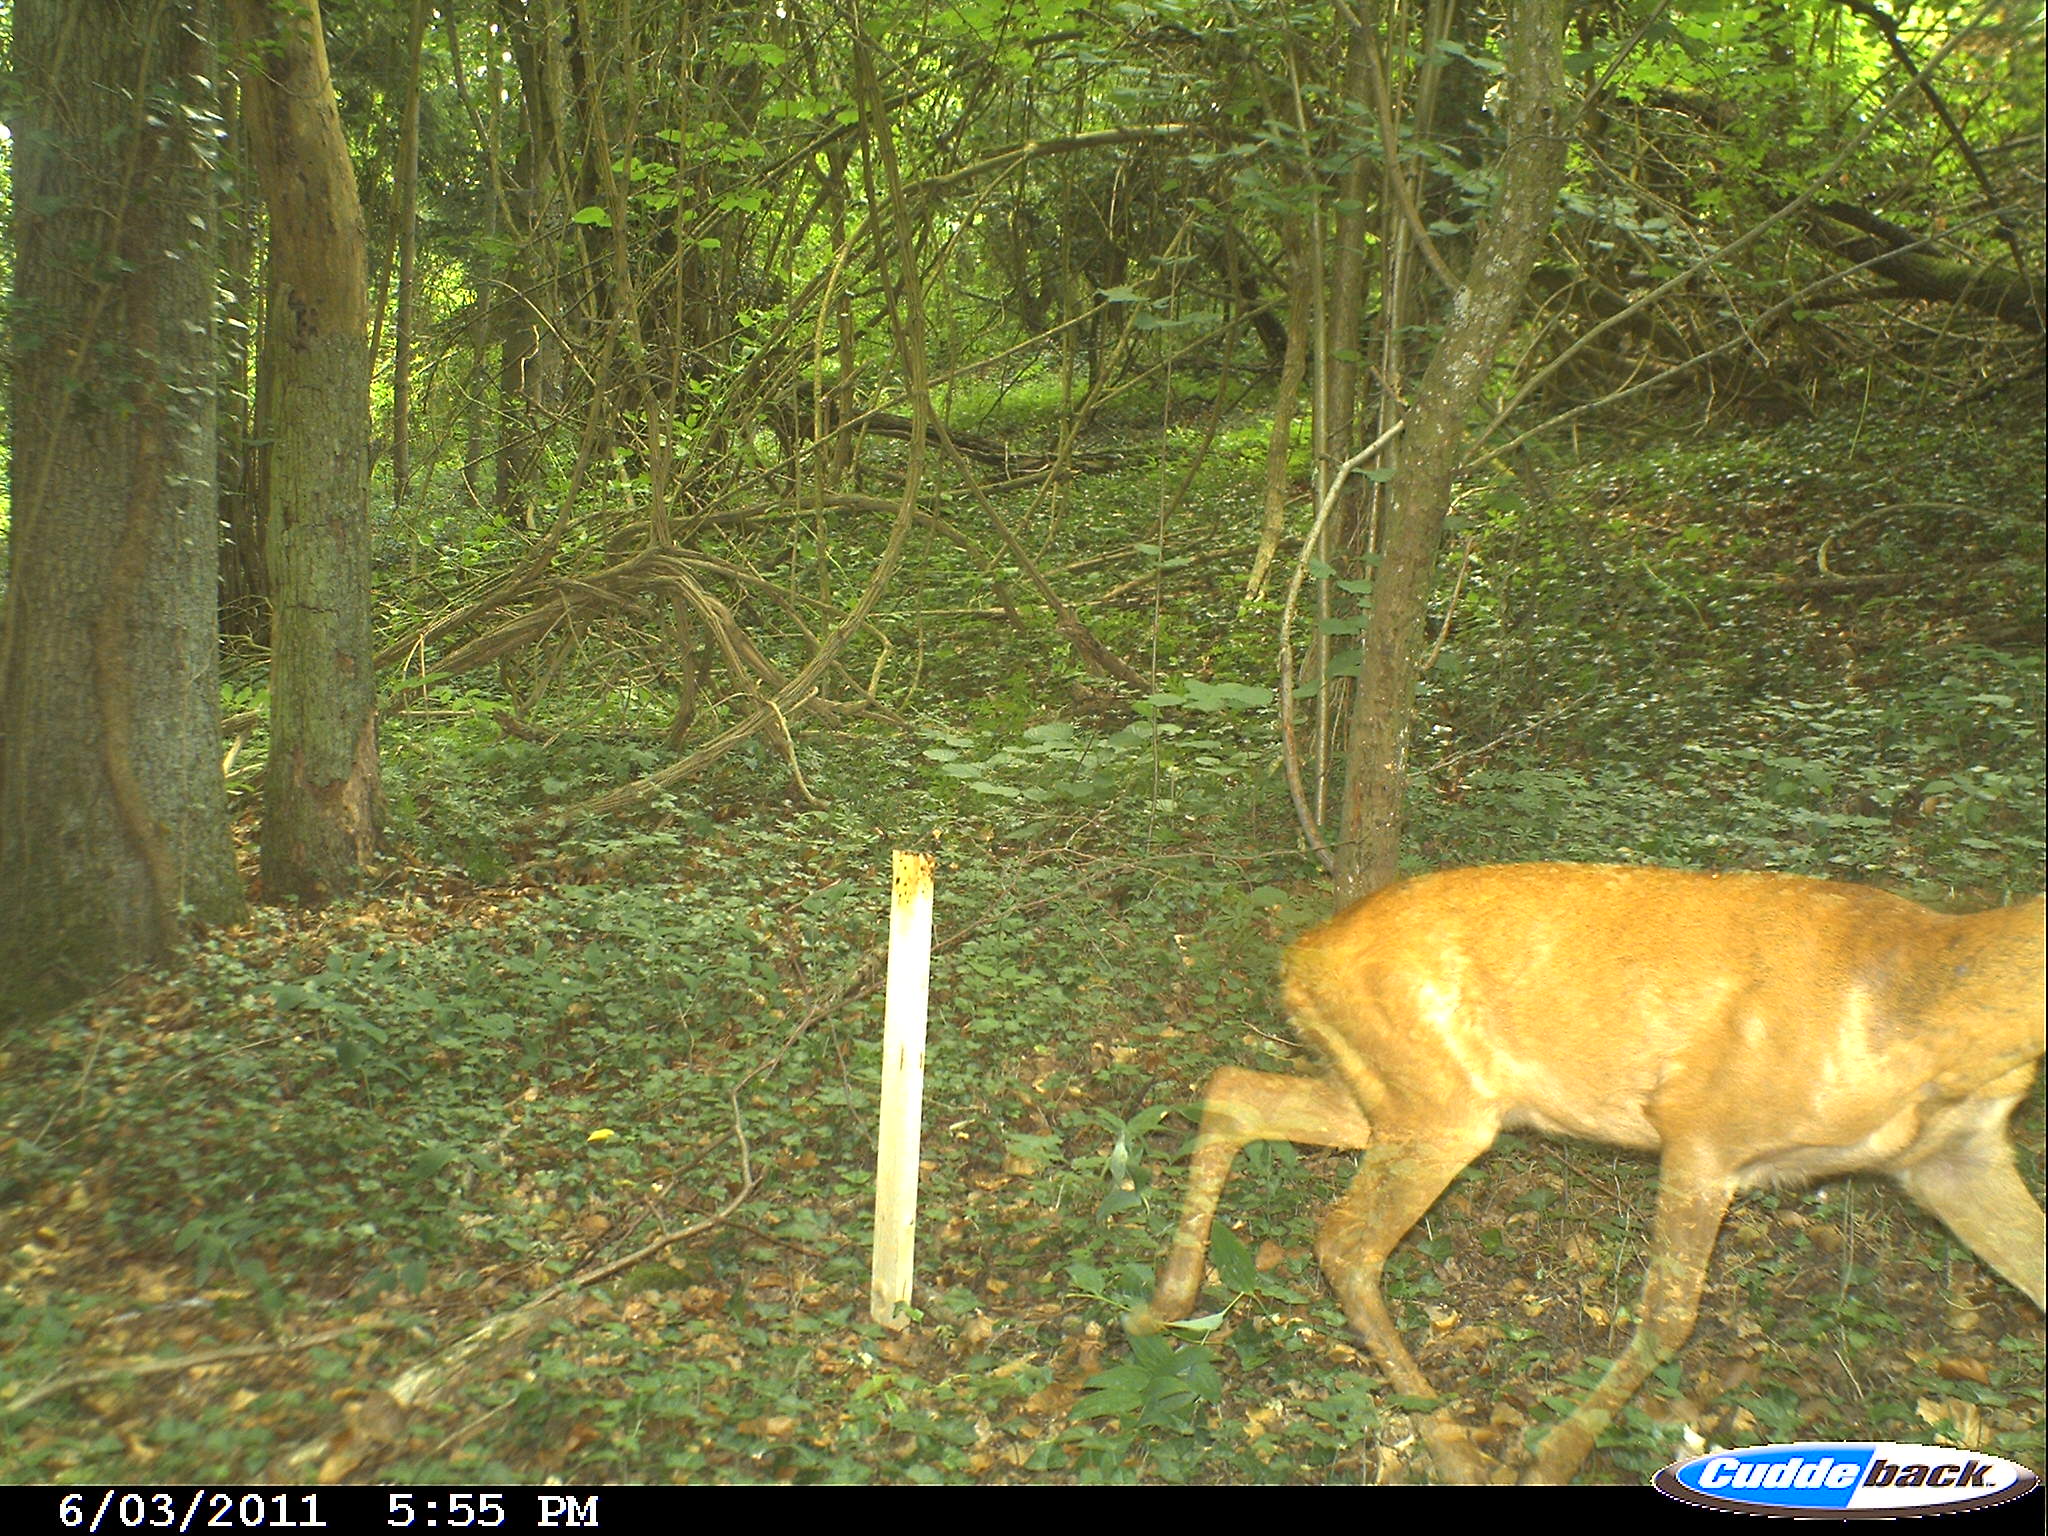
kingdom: Animalia
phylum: Chordata
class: Mammalia
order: Artiodactyla
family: Cervidae
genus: Capreolus
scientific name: Capreolus capreolus
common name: Western roe deer
